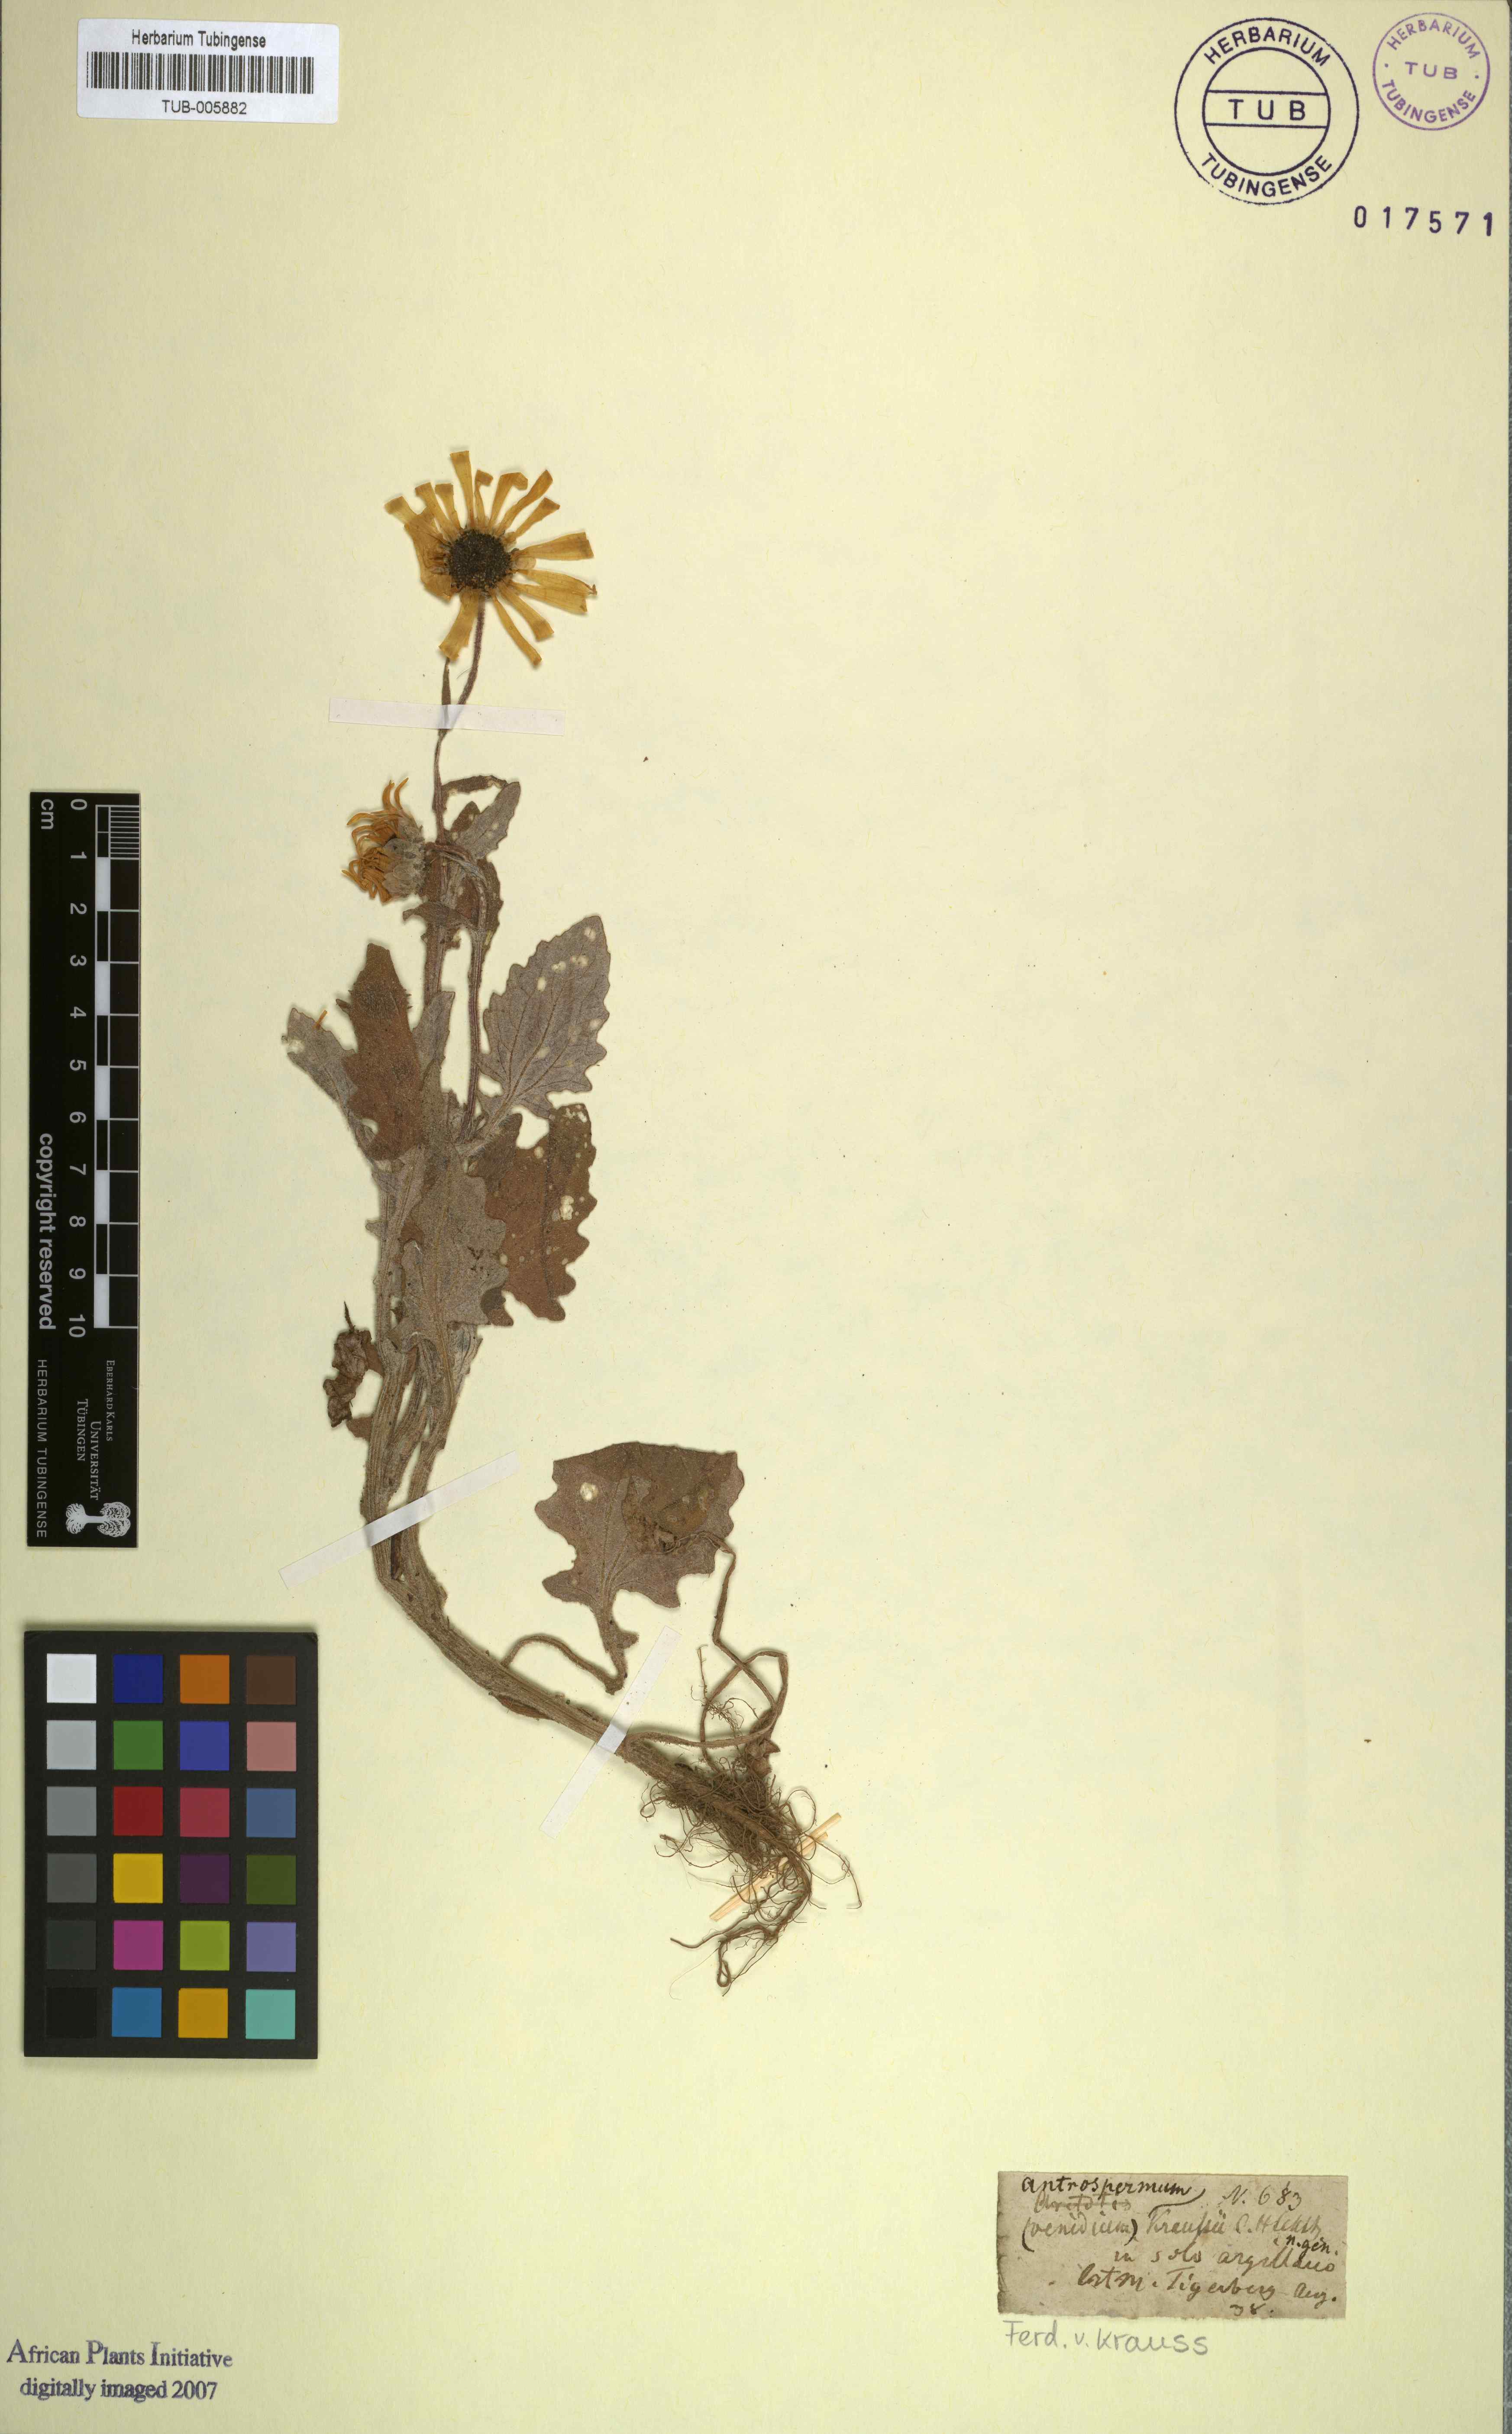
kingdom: Plantae
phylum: Tracheophyta
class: Magnoliopsida
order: Asterales
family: Asteraceae
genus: Arctotis
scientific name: Arctotis hirsuta
